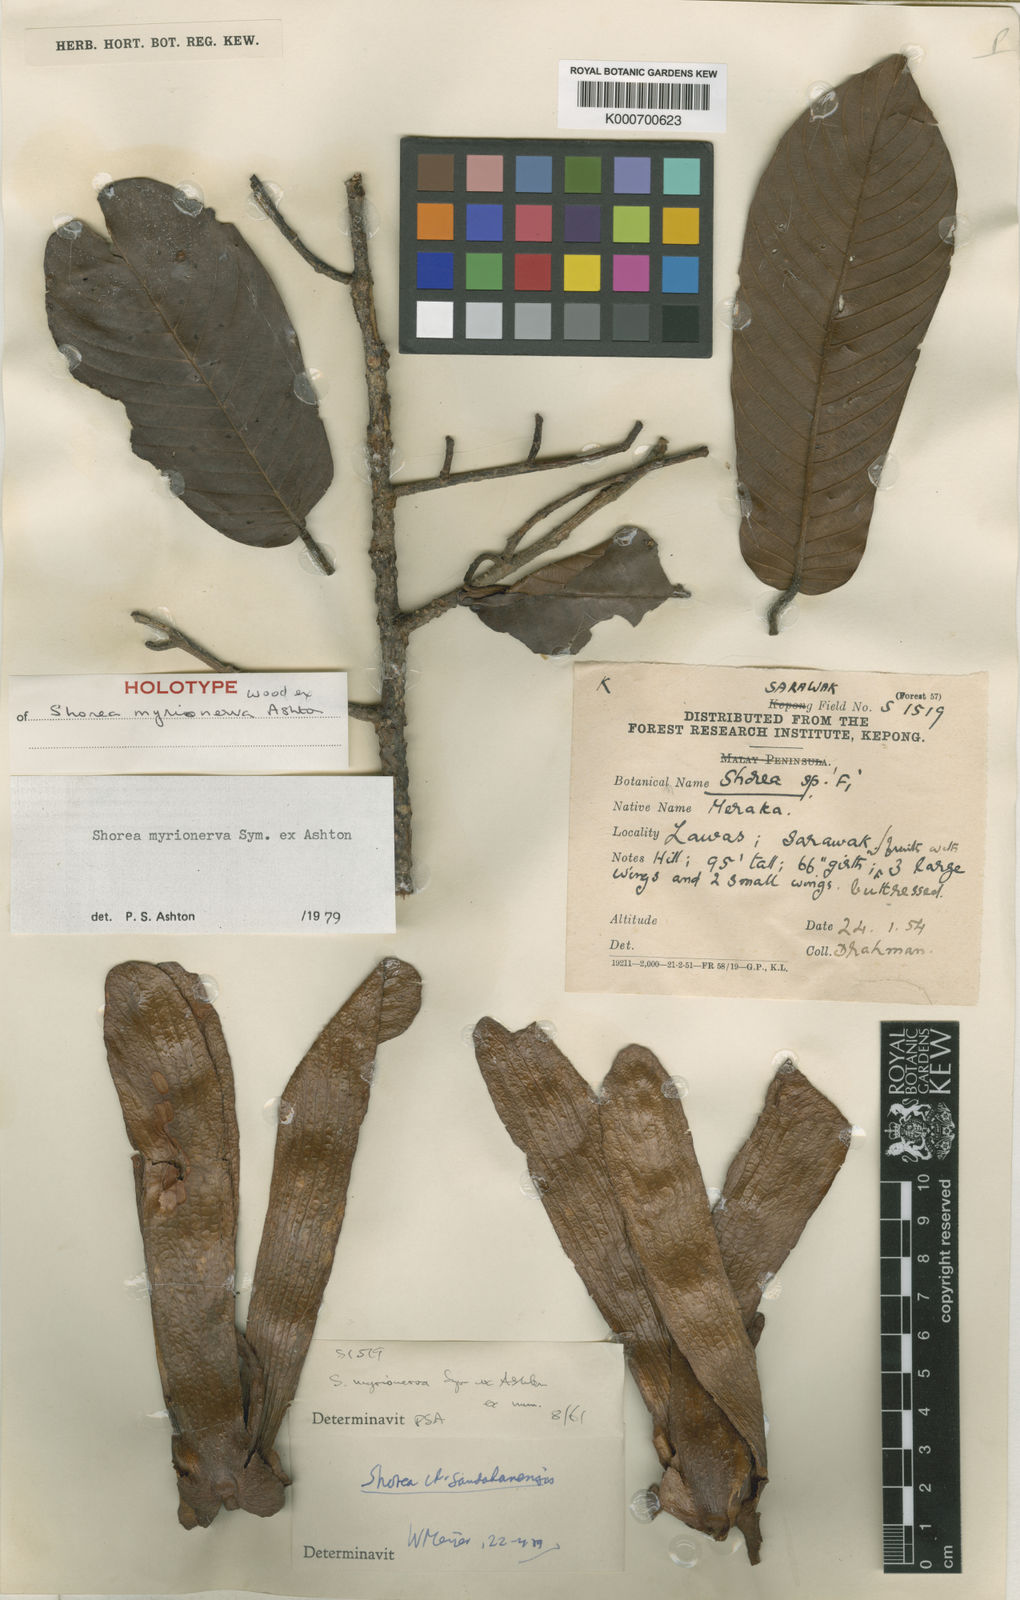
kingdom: Plantae
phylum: Tracheophyta
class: Magnoliopsida
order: Malvales
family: Dipterocarpaceae
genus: Shorea
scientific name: Shorea myrionerva
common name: Light red meranti
